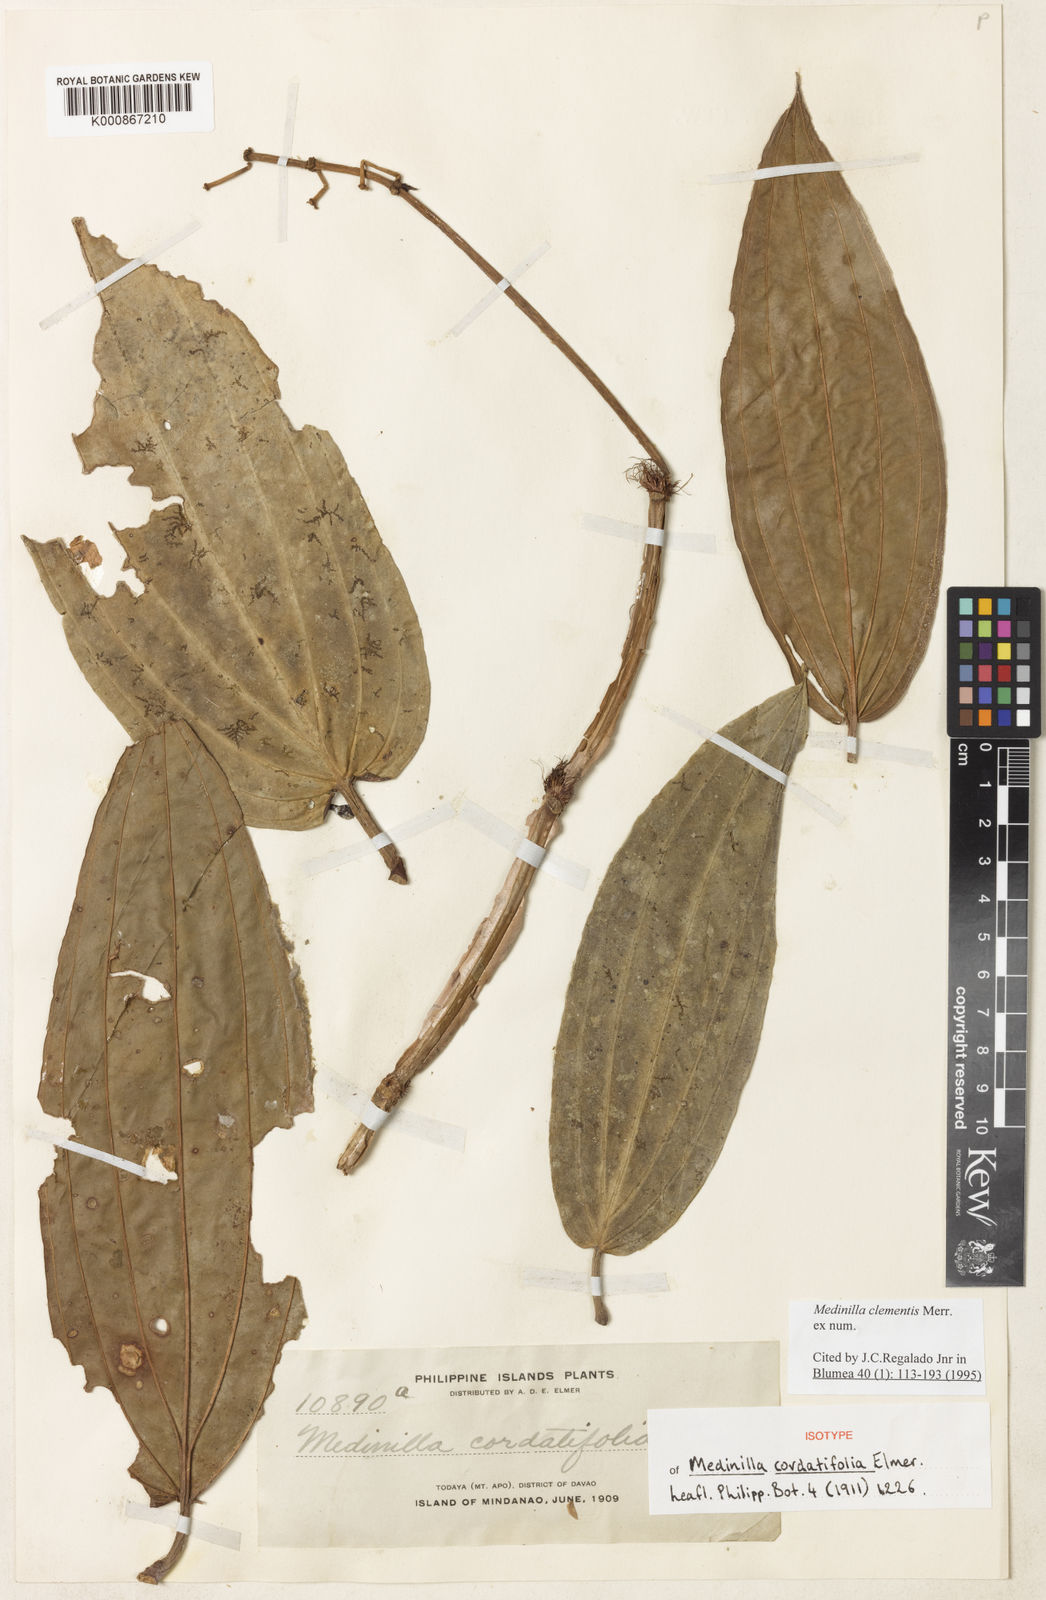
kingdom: Plantae
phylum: Tracheophyta
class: Magnoliopsida
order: Myrtales
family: Melastomataceae
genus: Medinilla
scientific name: Medinilla clementis
